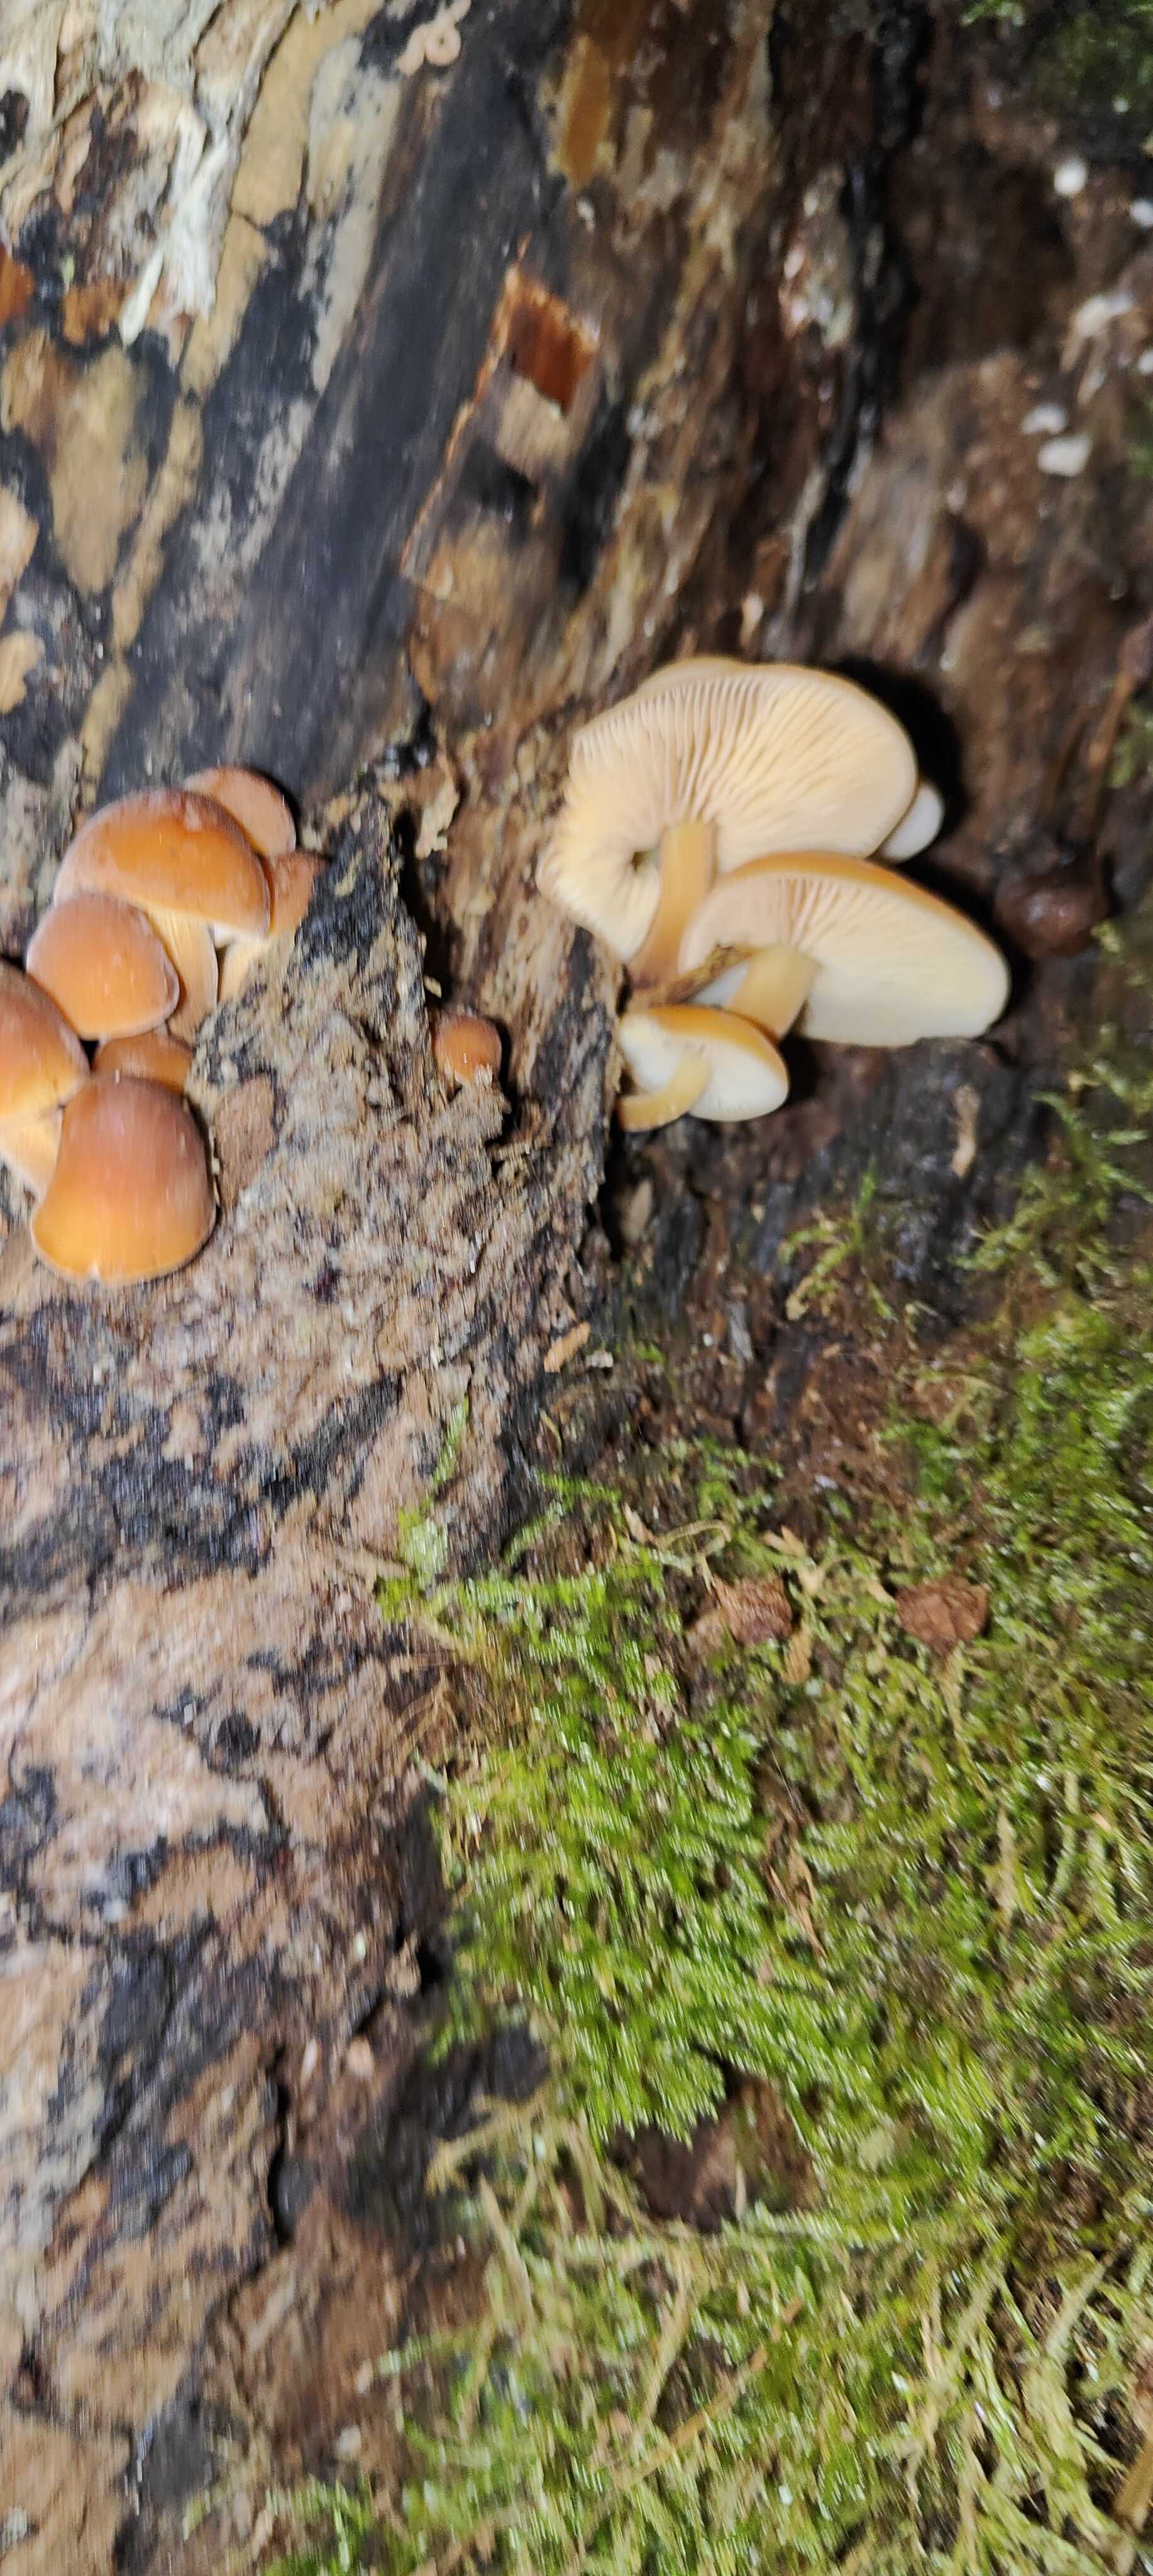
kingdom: Fungi
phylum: Basidiomycota
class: Agaricomycetes
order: Agaricales
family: Physalacriaceae
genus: Flammulina
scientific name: Flammulina velutipes
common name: gul fløjlsfod
